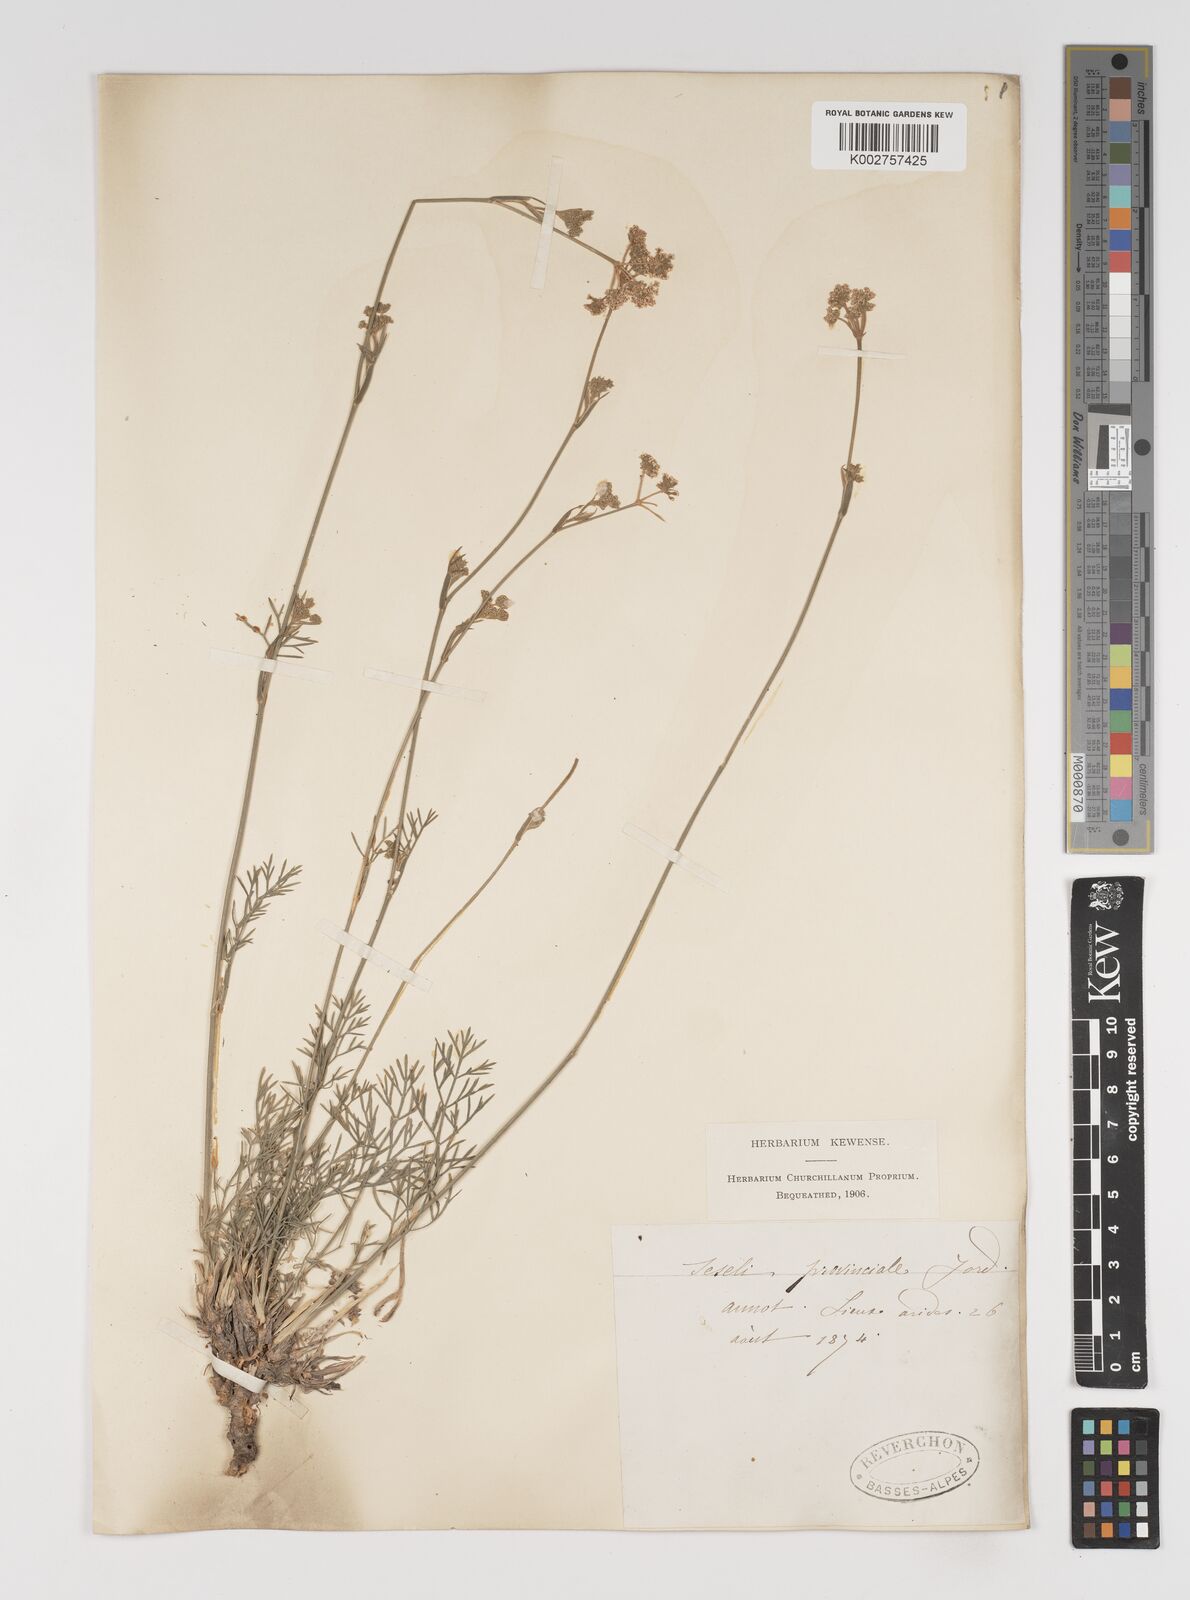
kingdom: Plantae
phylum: Tracheophyta
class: Magnoliopsida
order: Apiales
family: Apiaceae
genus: Seseli
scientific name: Seseli
